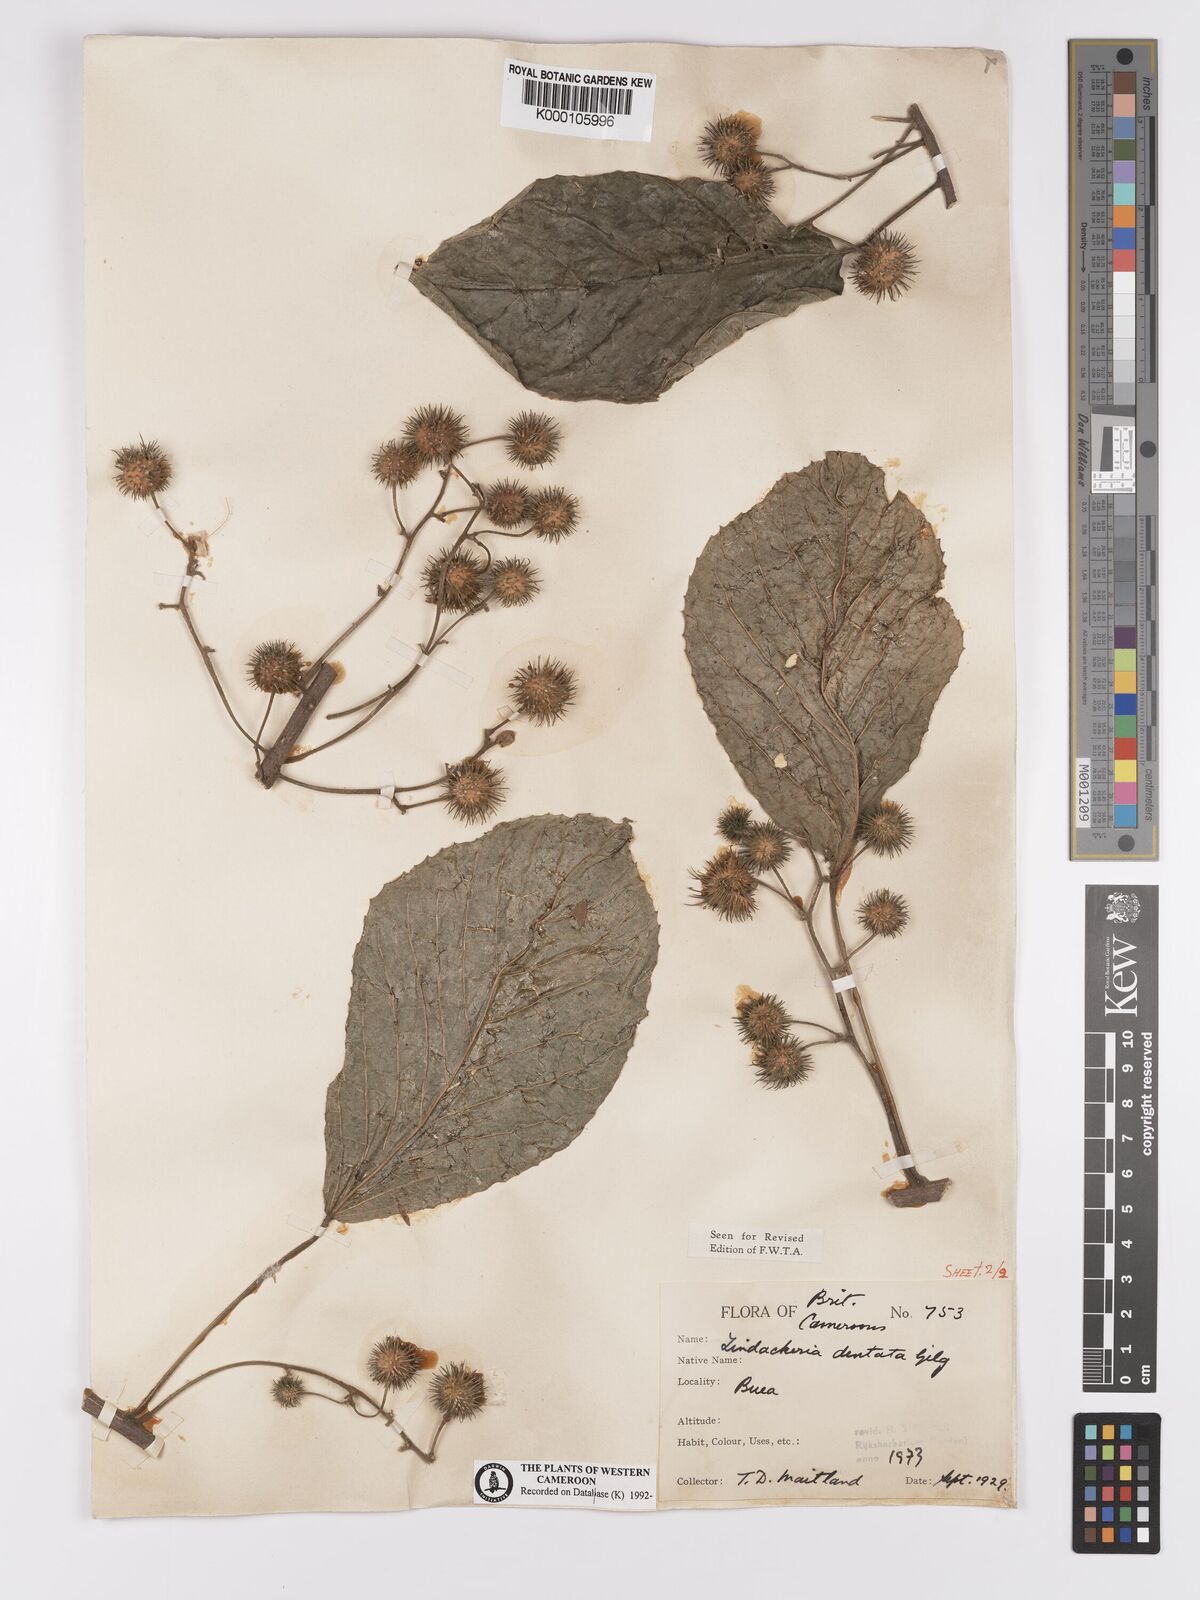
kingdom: Plantae
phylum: Tracheophyta
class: Magnoliopsida
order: Malpighiales
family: Achariaceae
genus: Lindackeria
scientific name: Lindackeria dentata
